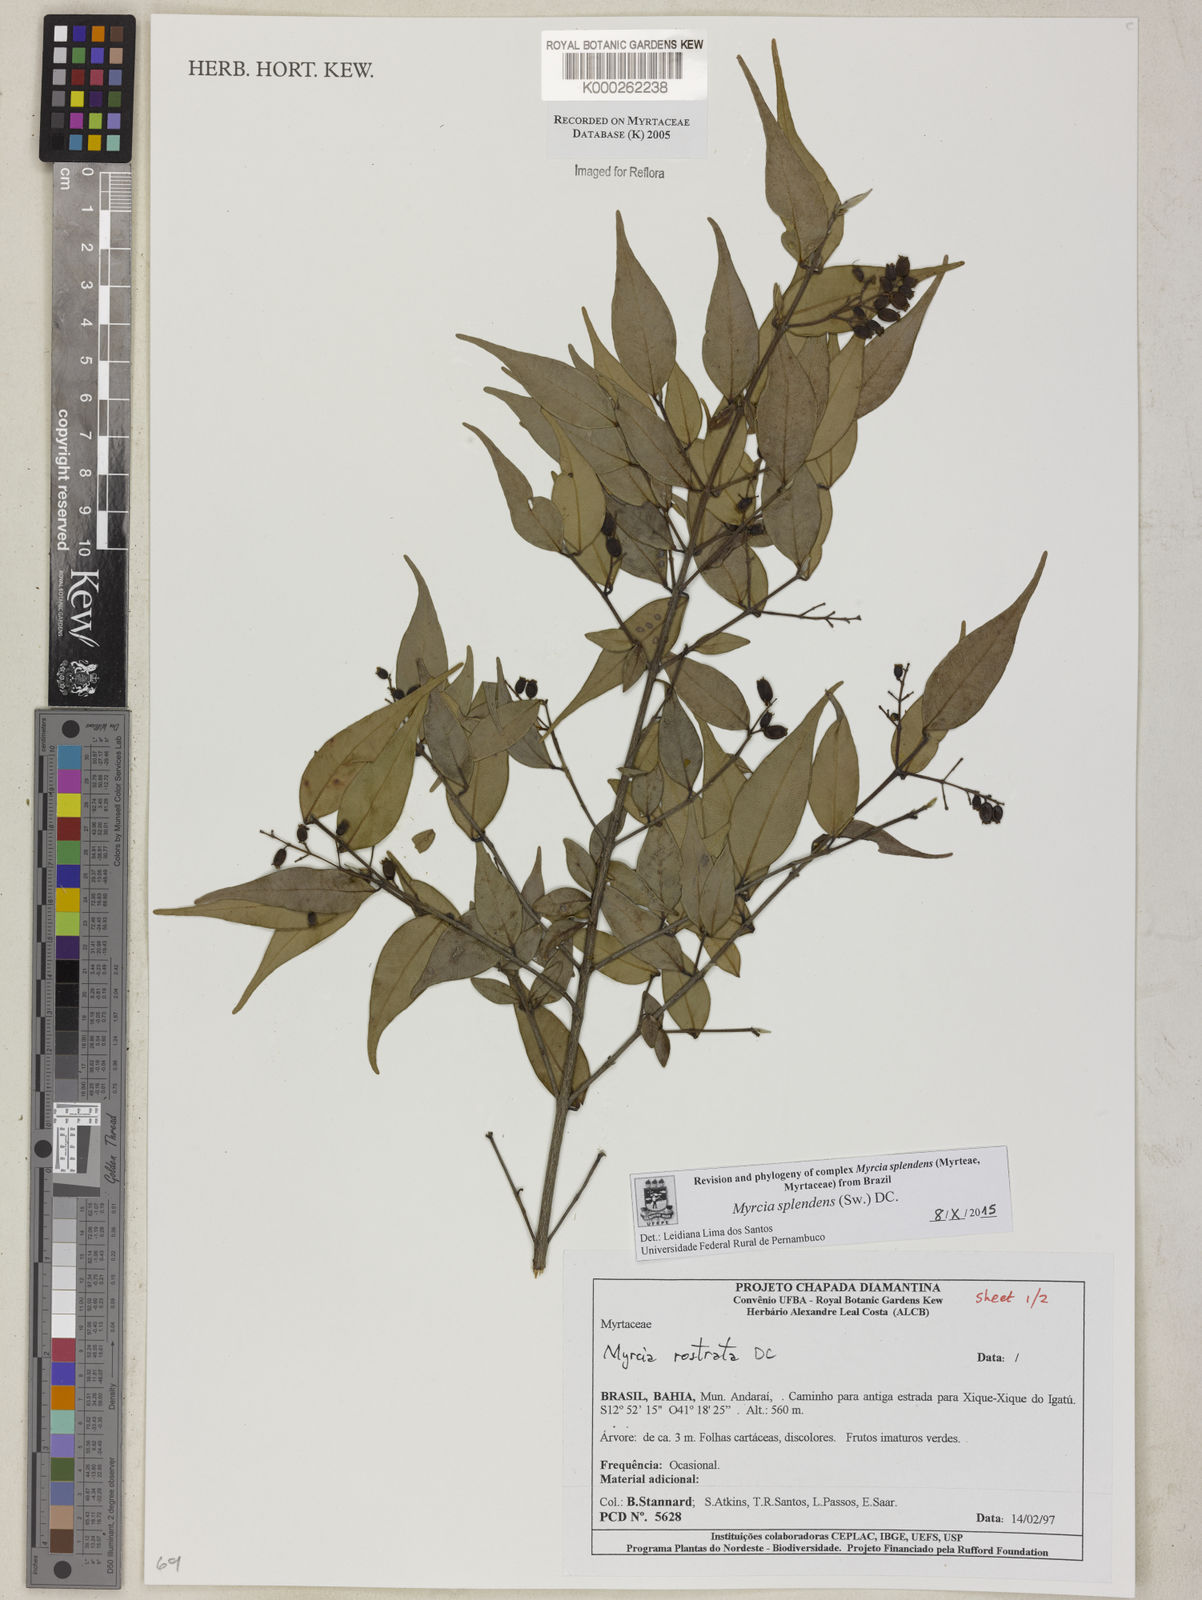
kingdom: Plantae
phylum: Tracheophyta
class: Magnoliopsida
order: Myrtales
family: Myrtaceae
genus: Myrcia
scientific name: Myrcia splendens
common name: Surinam cherry
